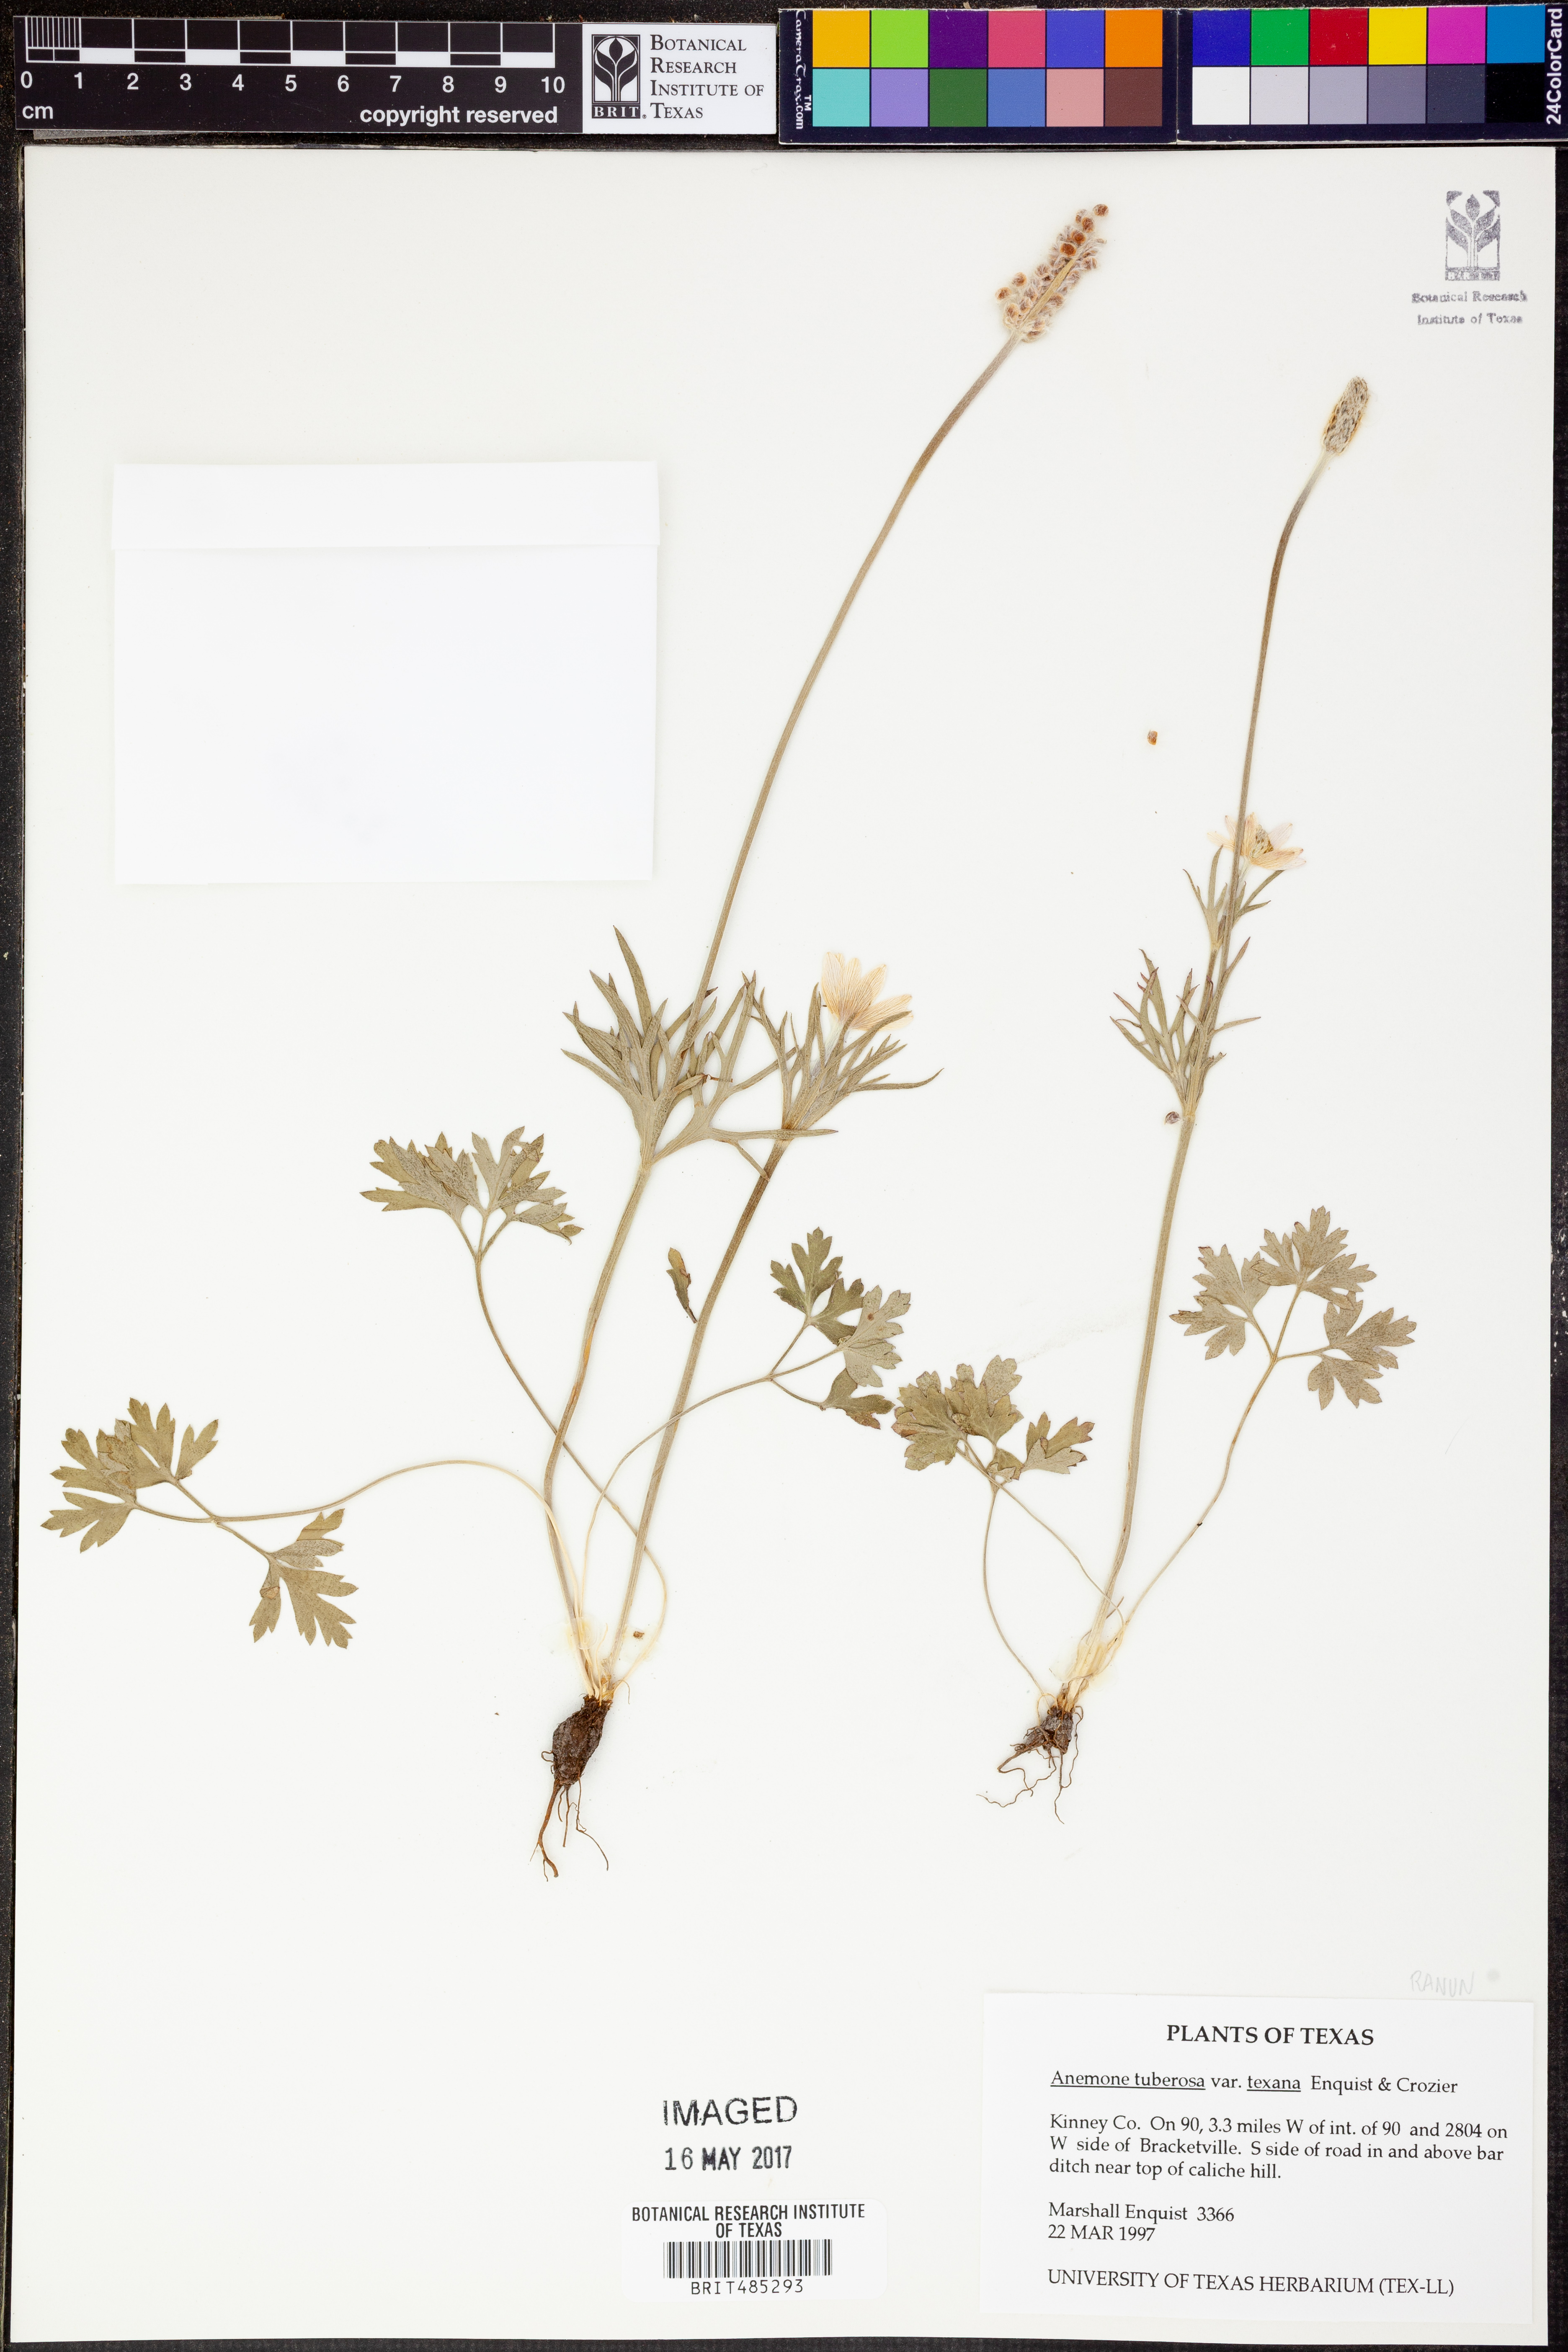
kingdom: Plantae
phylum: Tracheophyta
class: Magnoliopsida
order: Ranunculales
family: Ranunculaceae
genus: Anemone
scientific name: Anemone tuberosa
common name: Desert anemone
